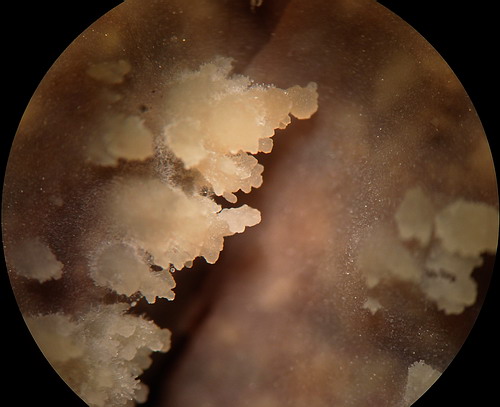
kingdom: Fungi
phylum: Basidiomycota
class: Agaricomycetes
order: Corticiales
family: Vuilleminiaceae
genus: Vuilleminia
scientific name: Vuilleminia
